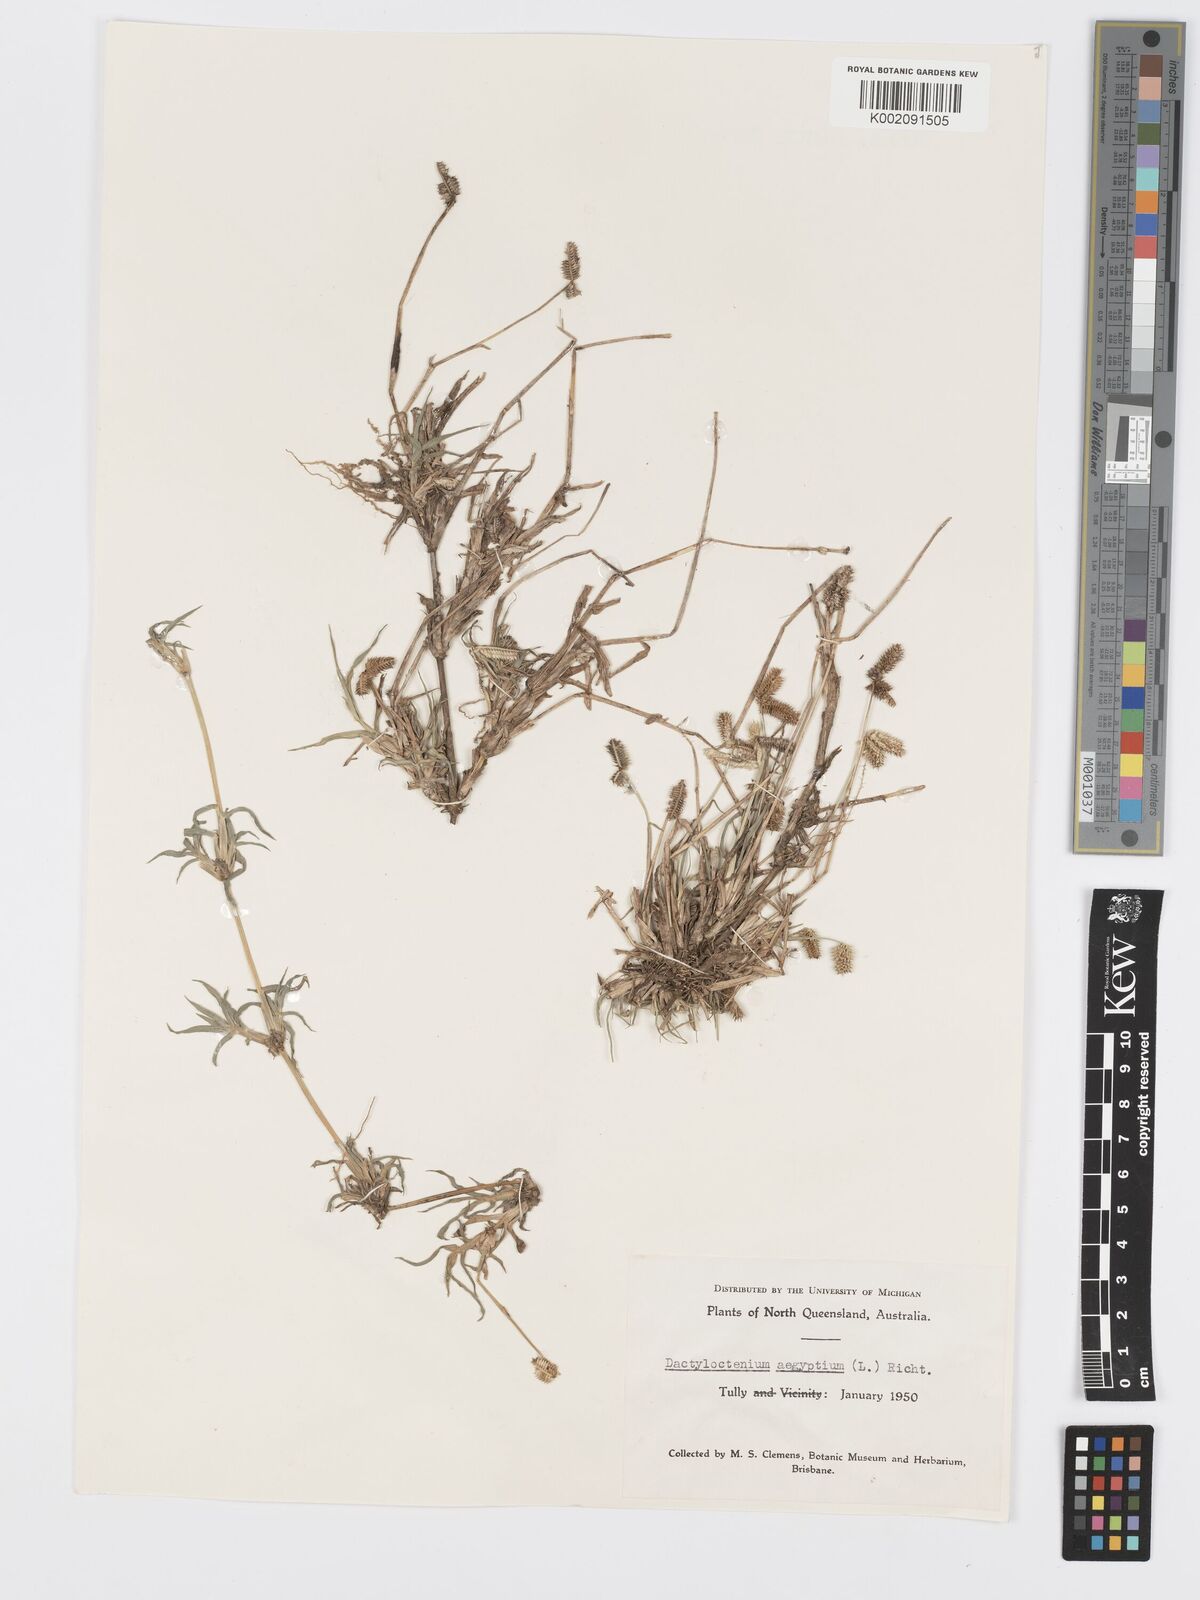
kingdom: Plantae
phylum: Tracheophyta
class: Liliopsida
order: Poales
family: Poaceae
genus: Dactyloctenium
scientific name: Dactyloctenium aegyptium
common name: Egyptian grass
